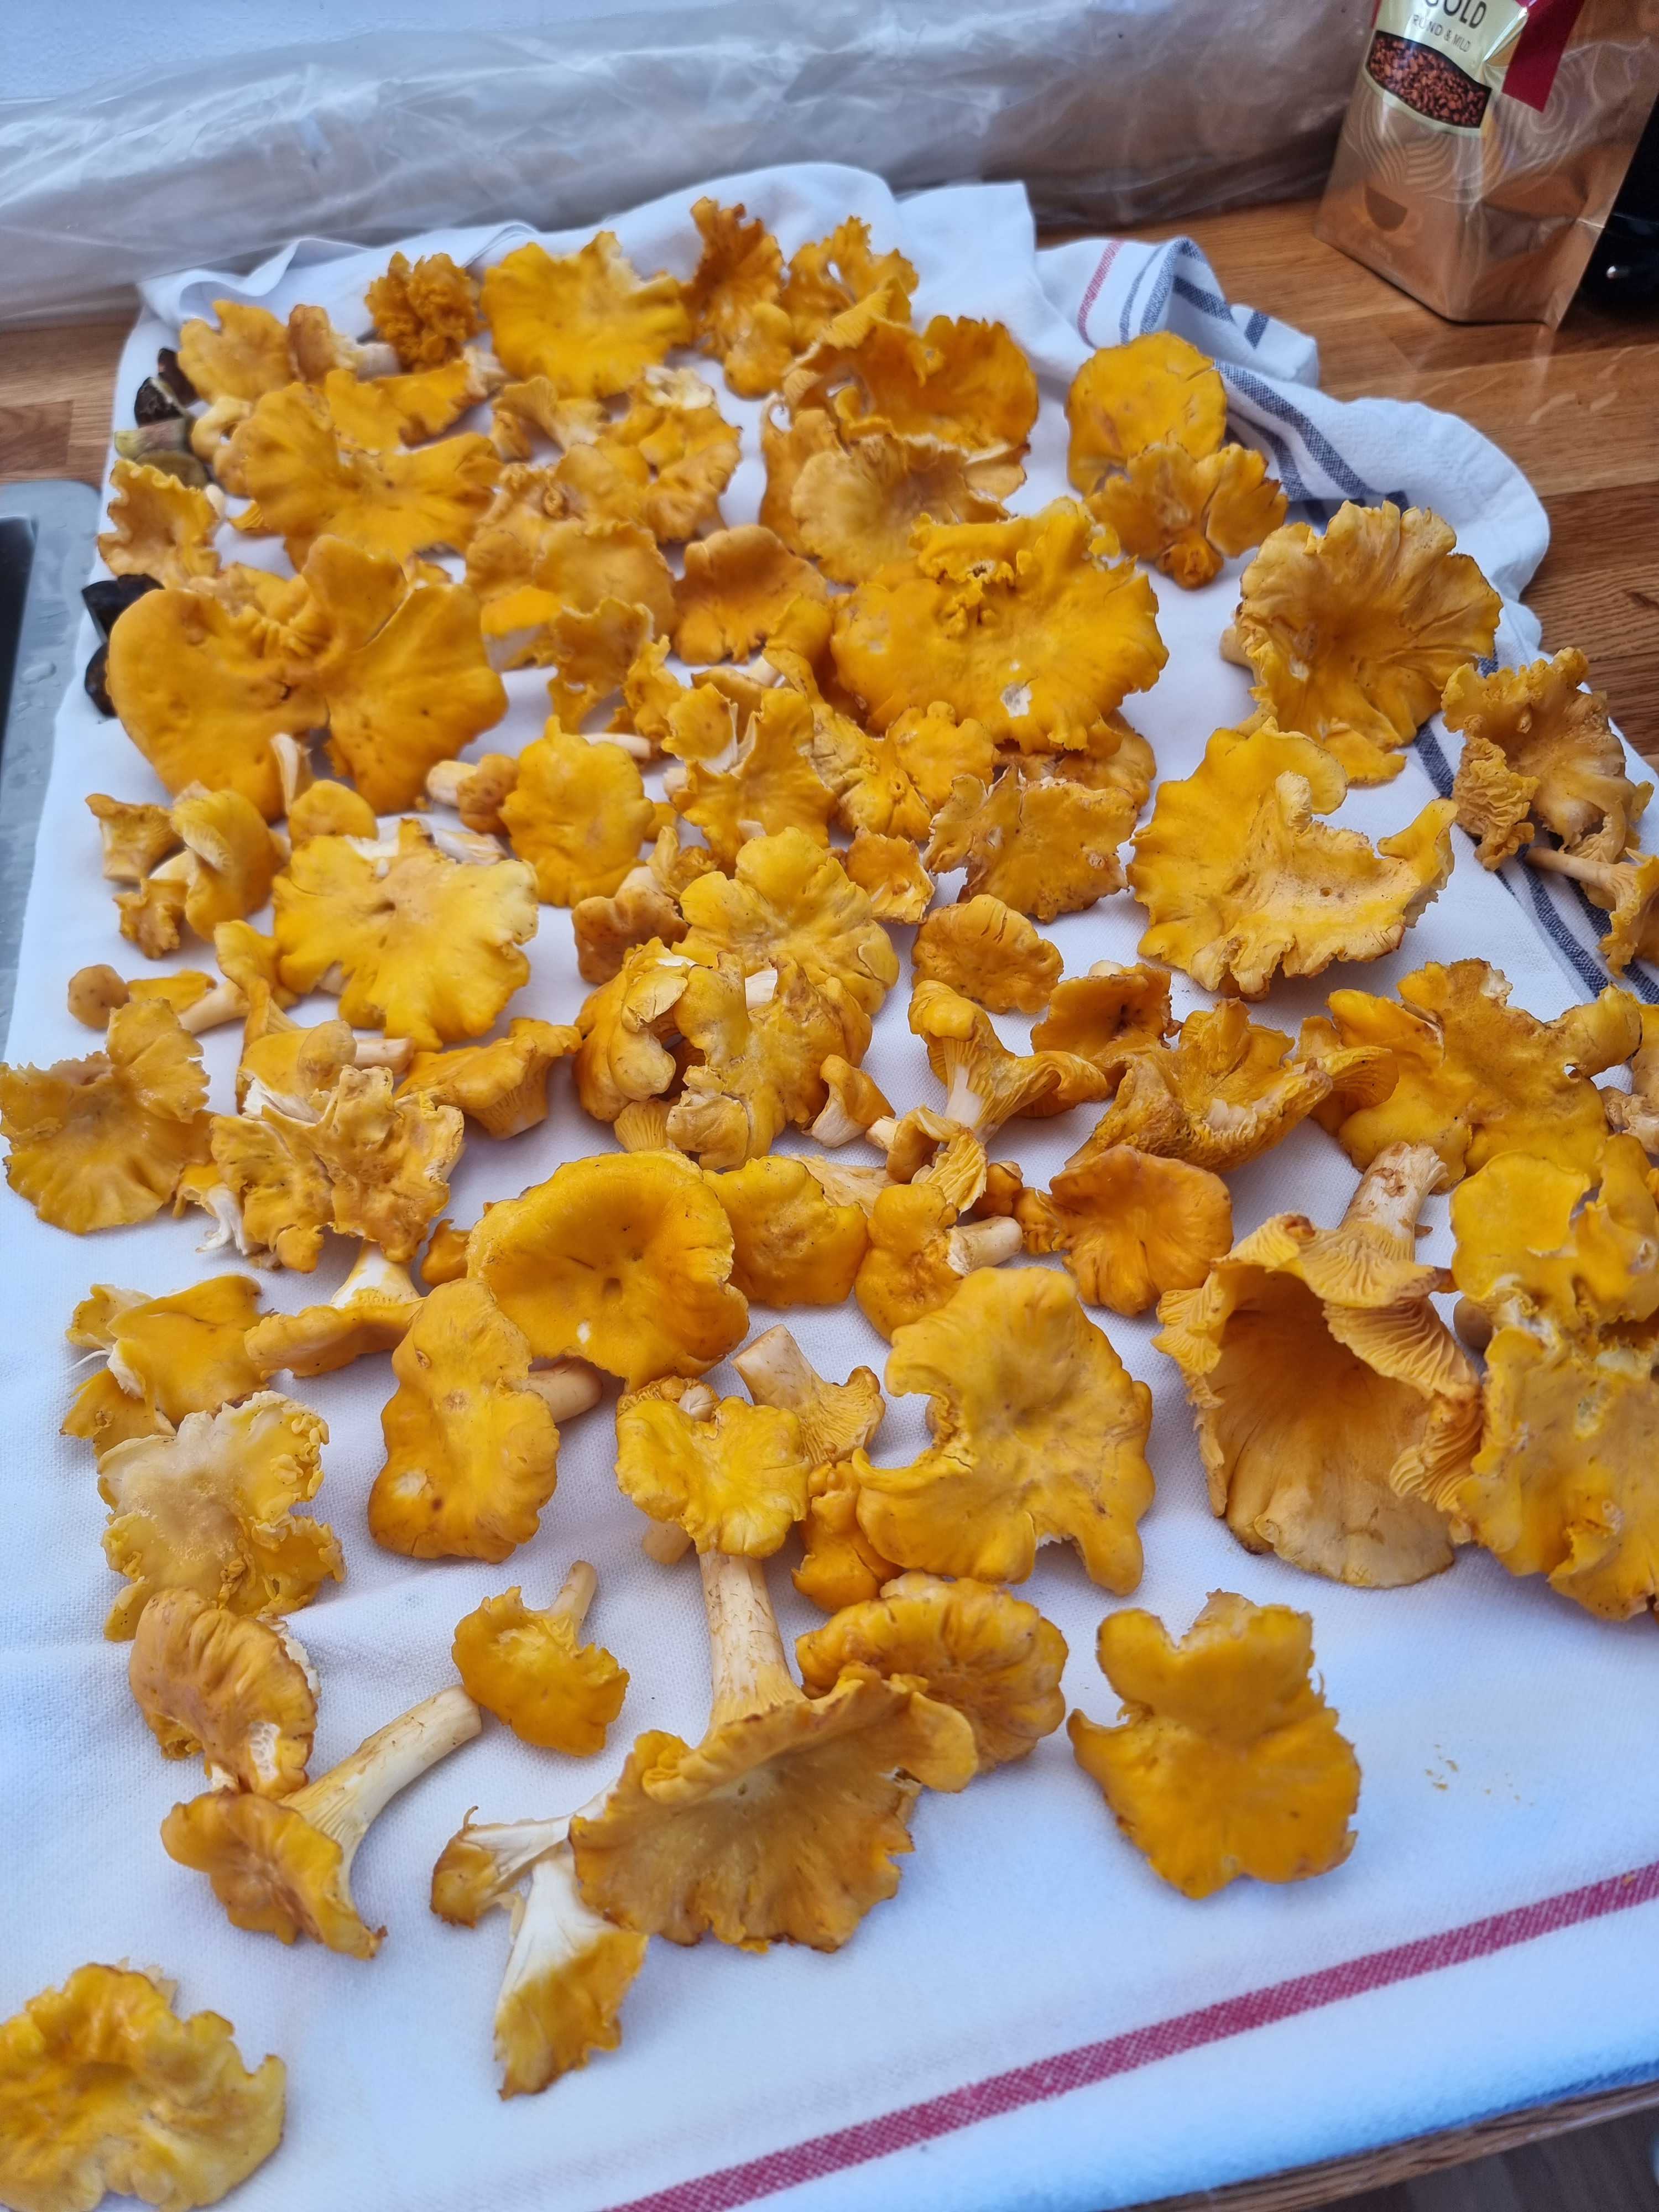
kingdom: Fungi
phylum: Basidiomycota
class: Agaricomycetes
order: Cantharellales
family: Hydnaceae
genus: Cantharellus
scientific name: Cantharellus cibarius
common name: almindelig kantarel
